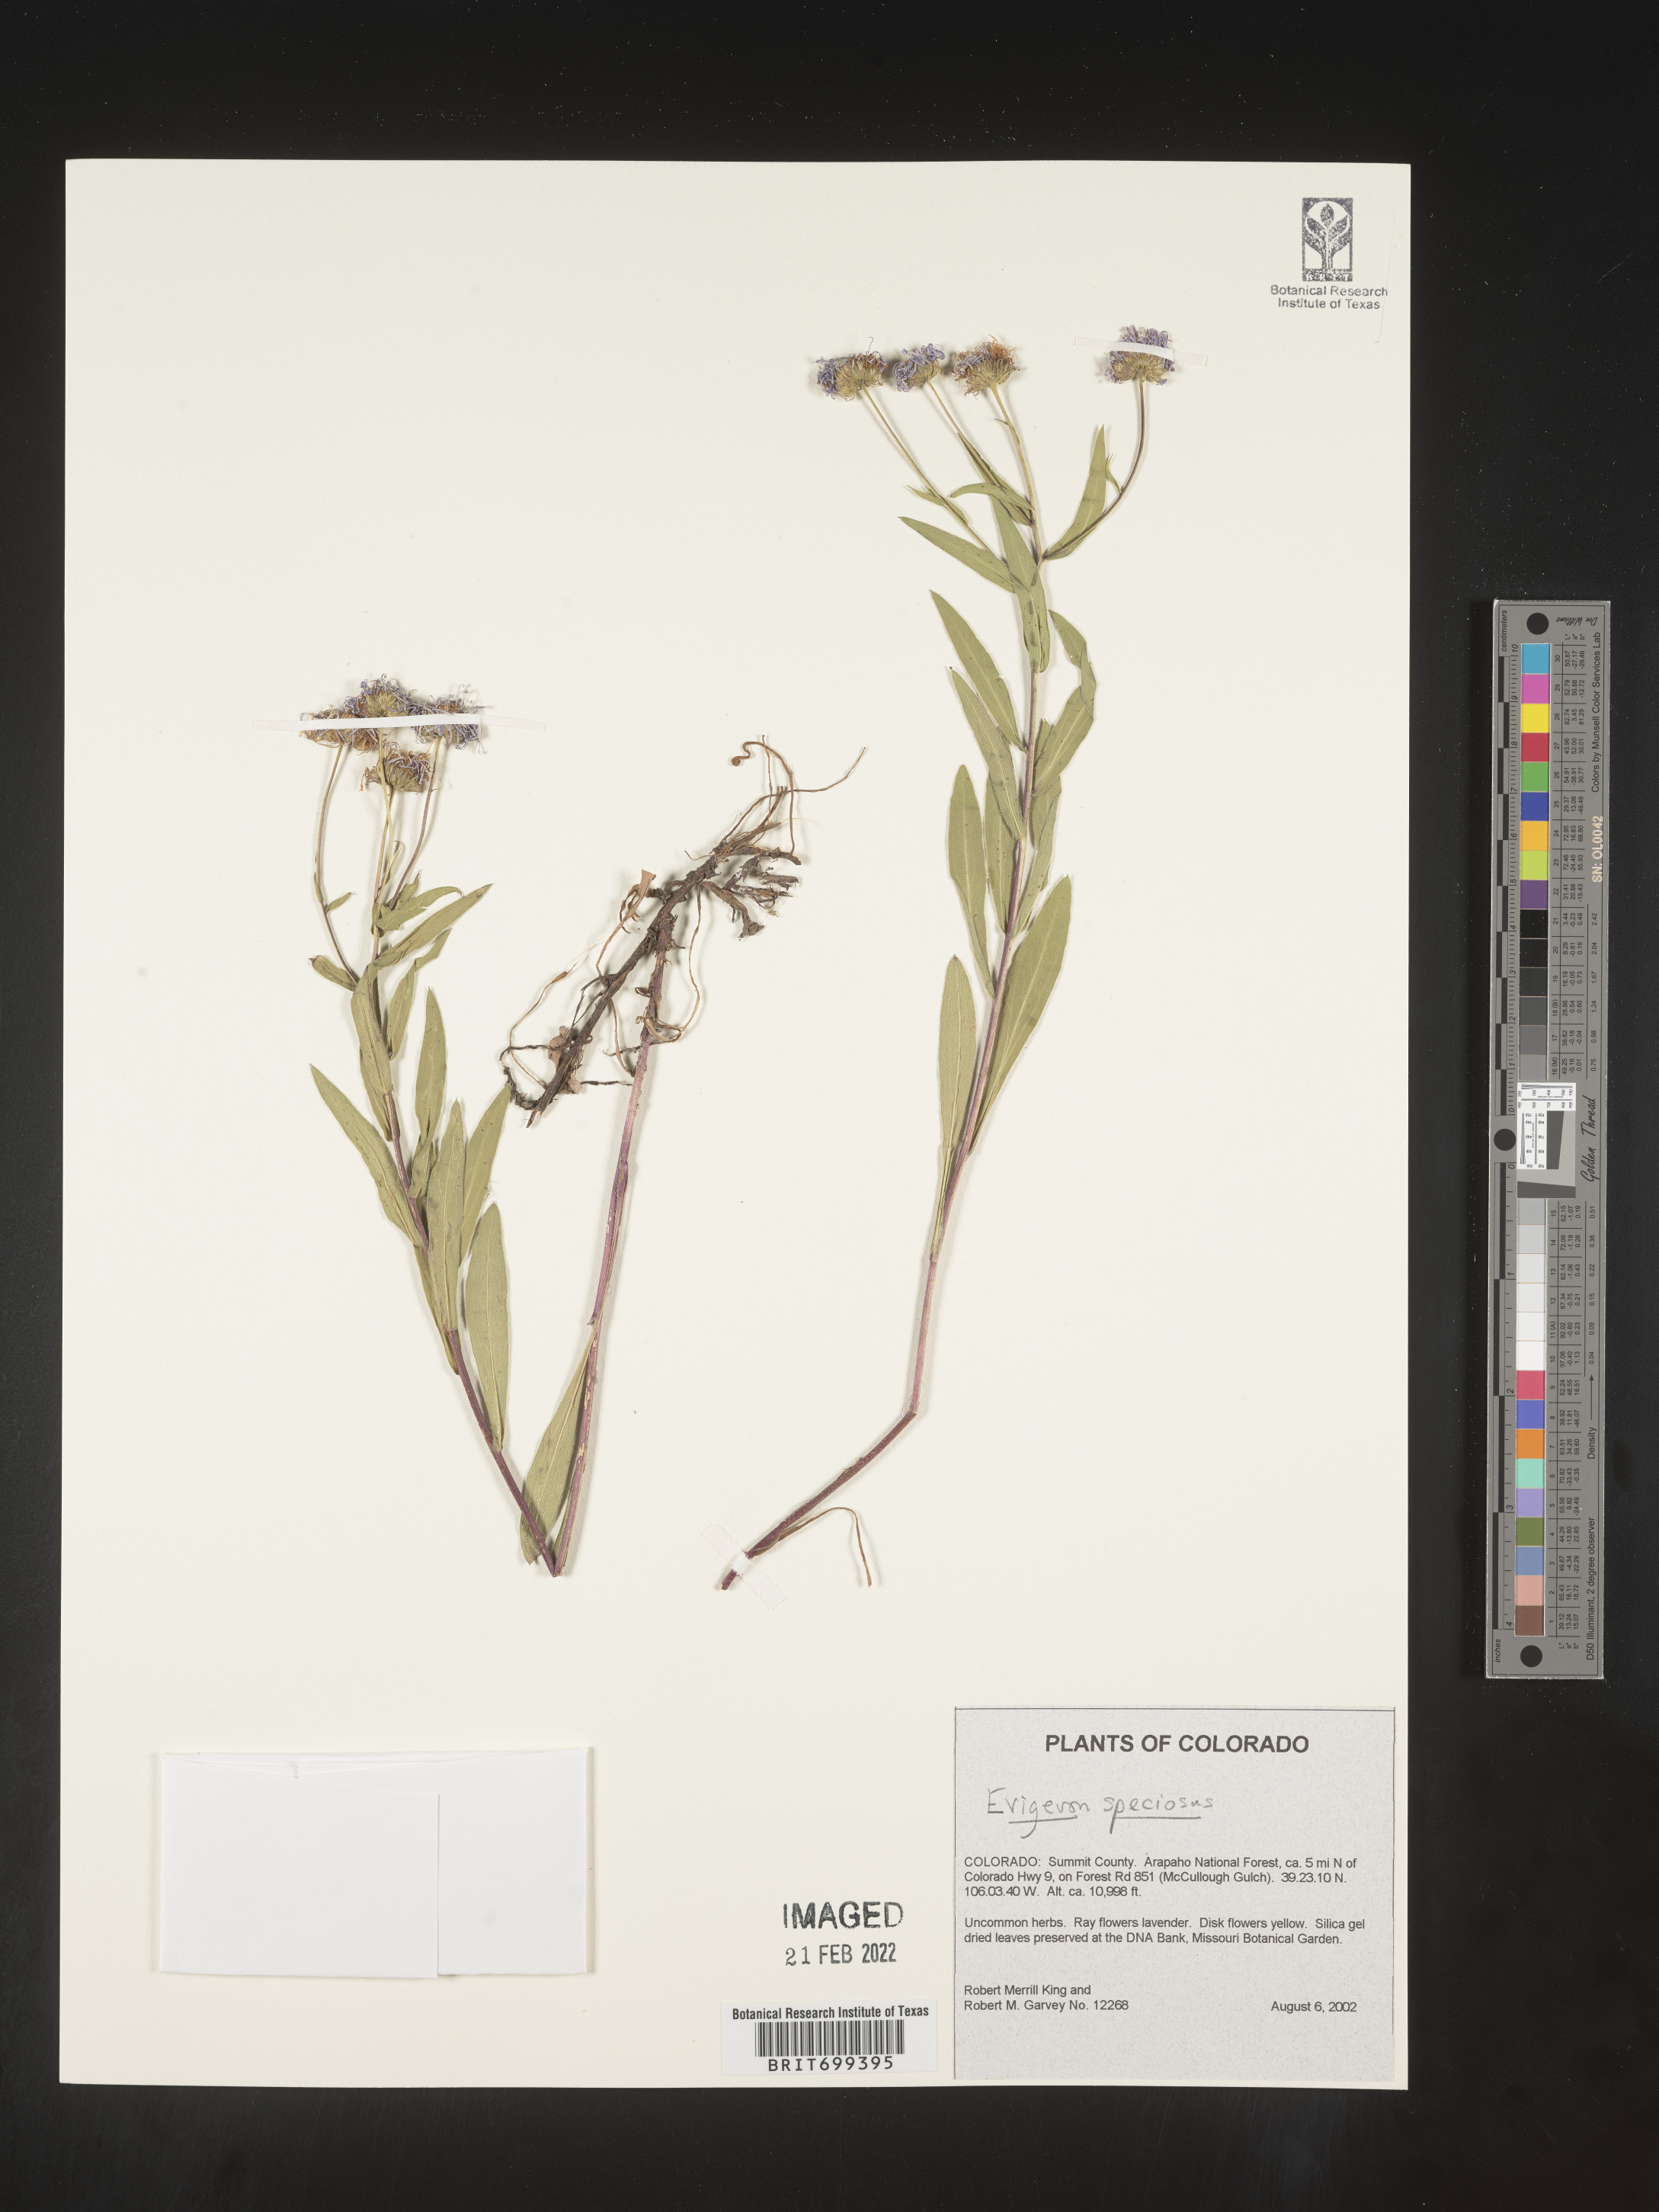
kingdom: Plantae
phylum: Tracheophyta
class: Magnoliopsida
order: Asterales
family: Asteraceae
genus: Erigeron
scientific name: Erigeron speciosus
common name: Aspen fleabane
